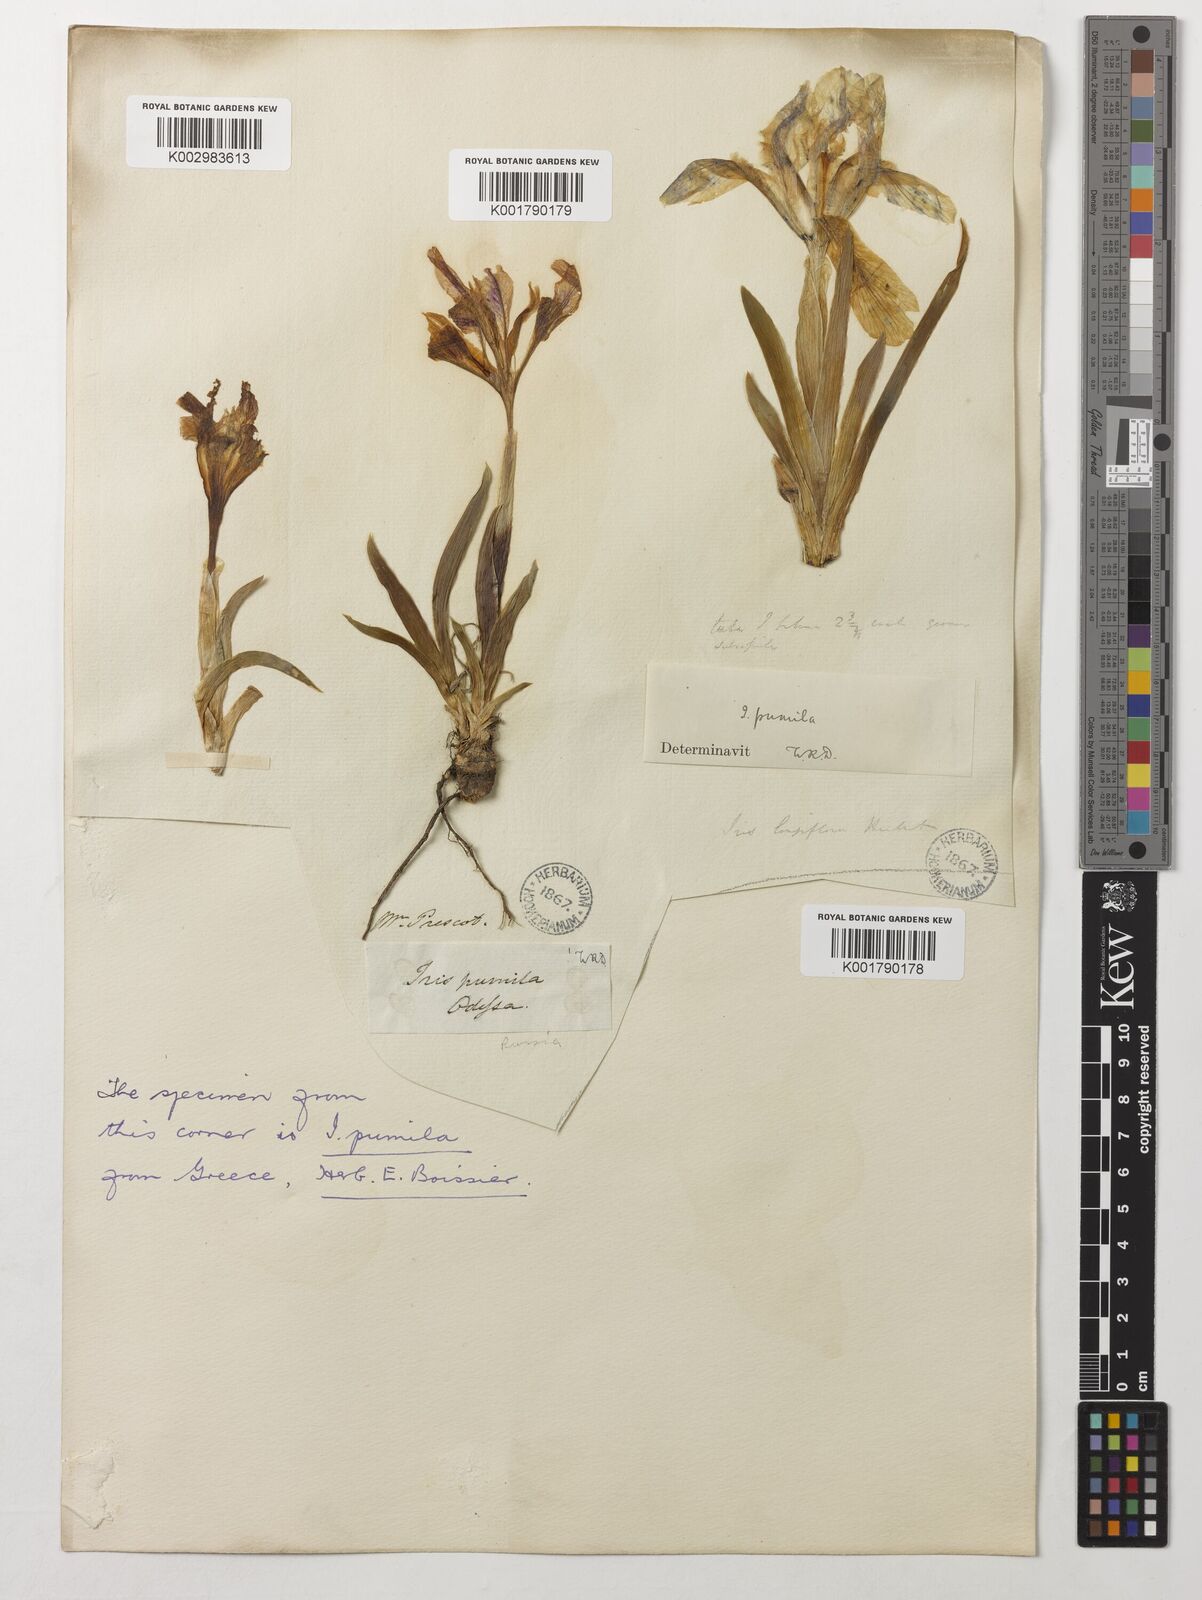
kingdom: Plantae
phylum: Tracheophyta
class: Liliopsida
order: Asparagales
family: Iridaceae
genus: Iris
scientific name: Iris pumila
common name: Dwarf iris
